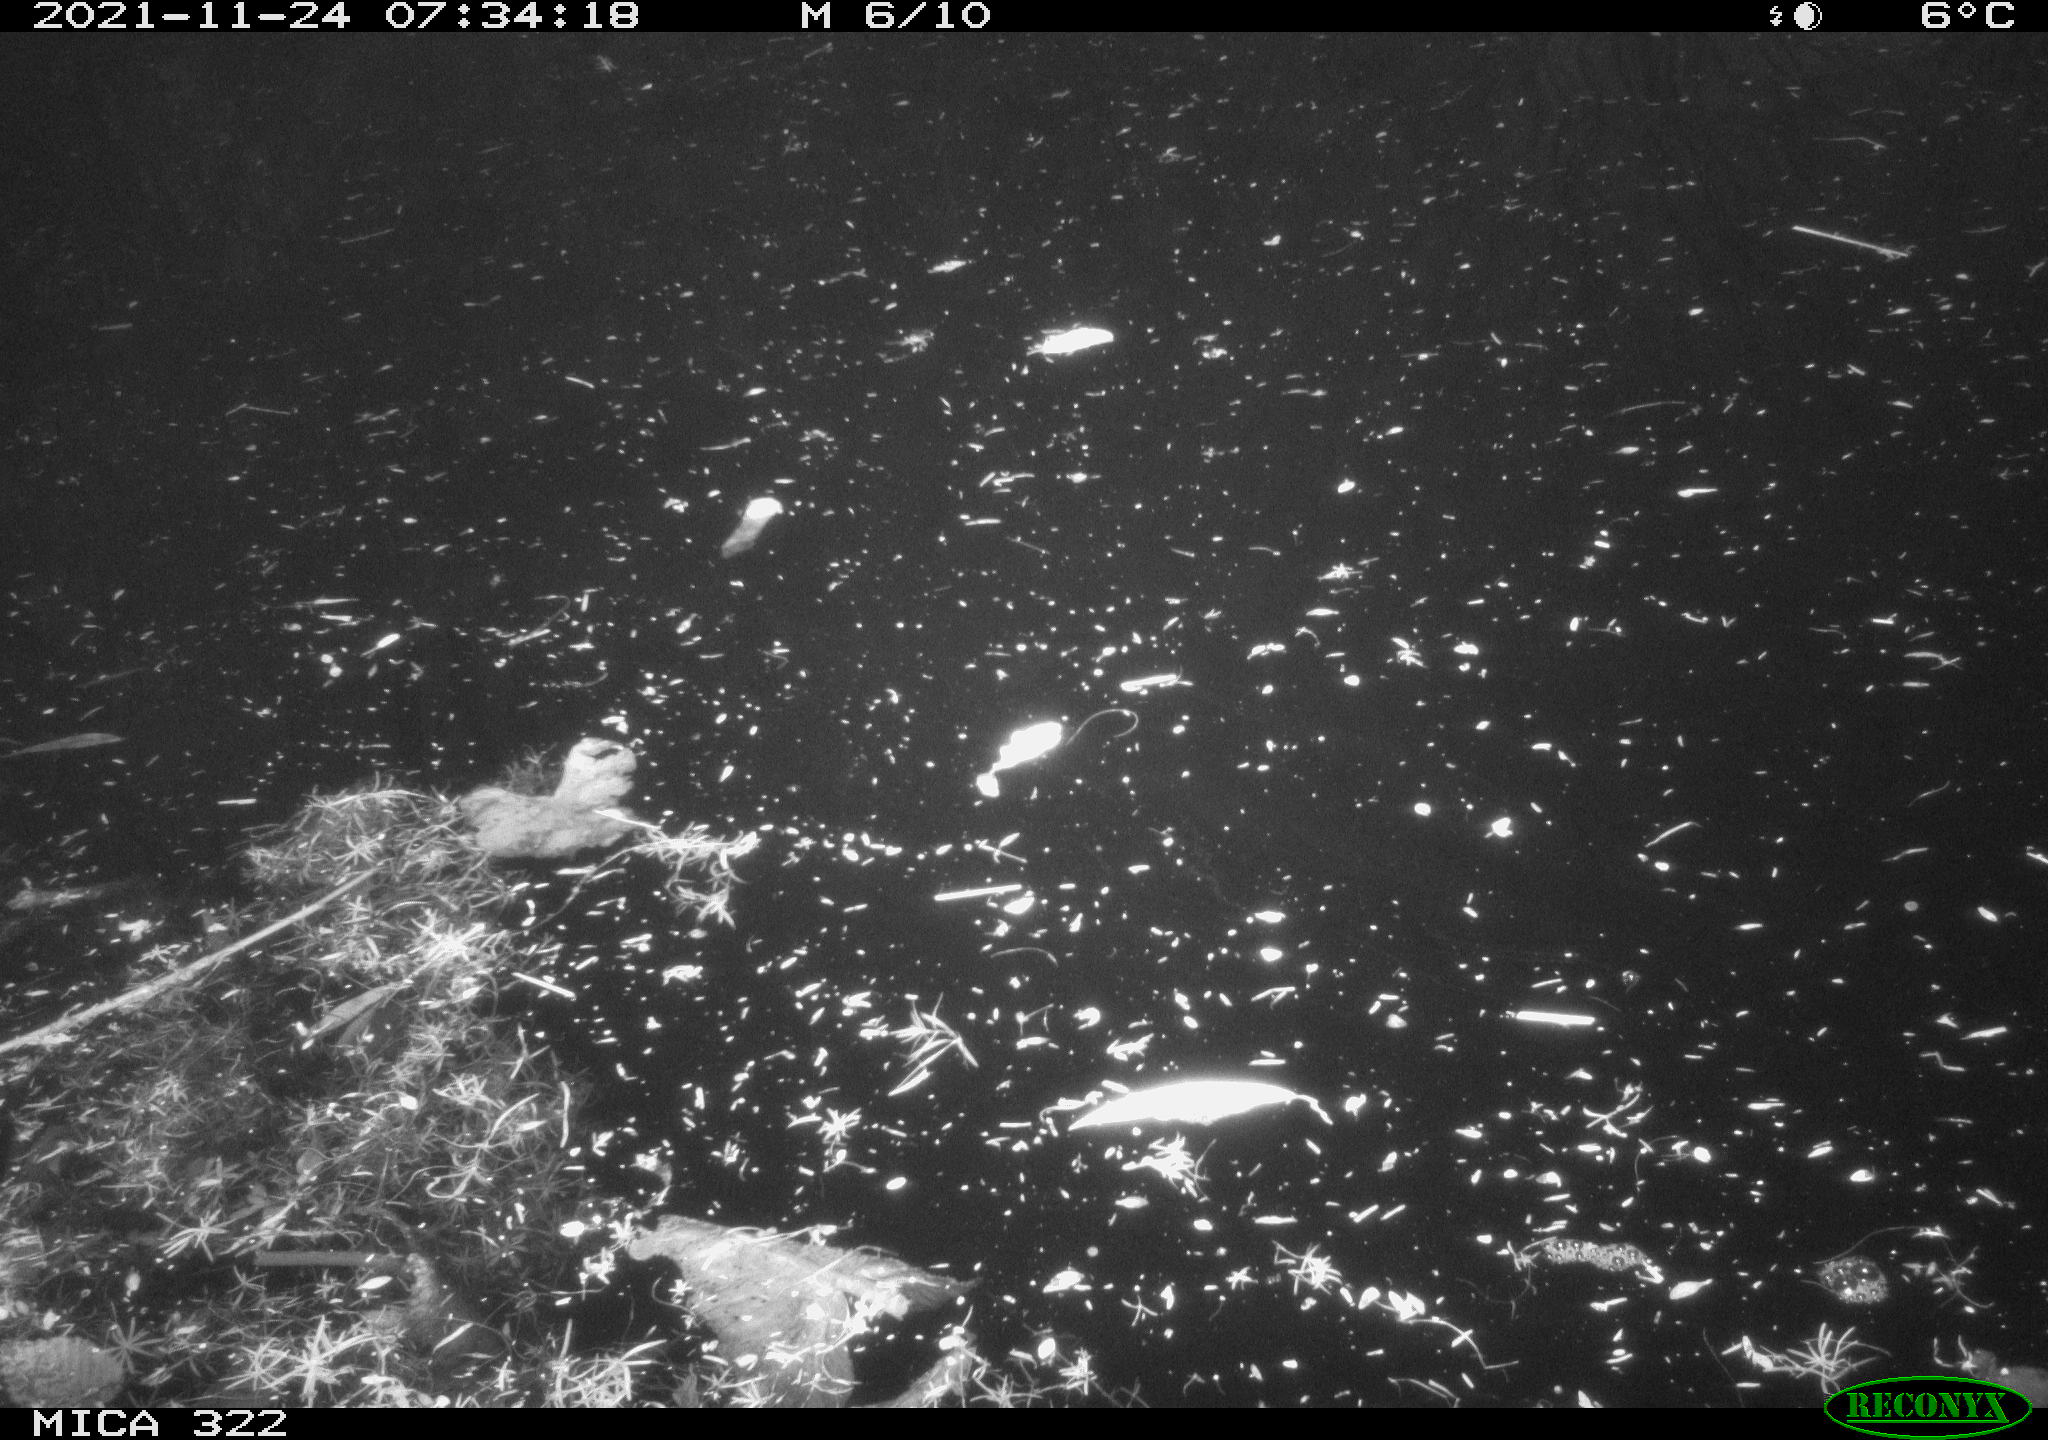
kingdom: Animalia
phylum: Chordata
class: Aves
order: Gruiformes
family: Rallidae
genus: Gallinula
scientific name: Gallinula chloropus
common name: Common moorhen
